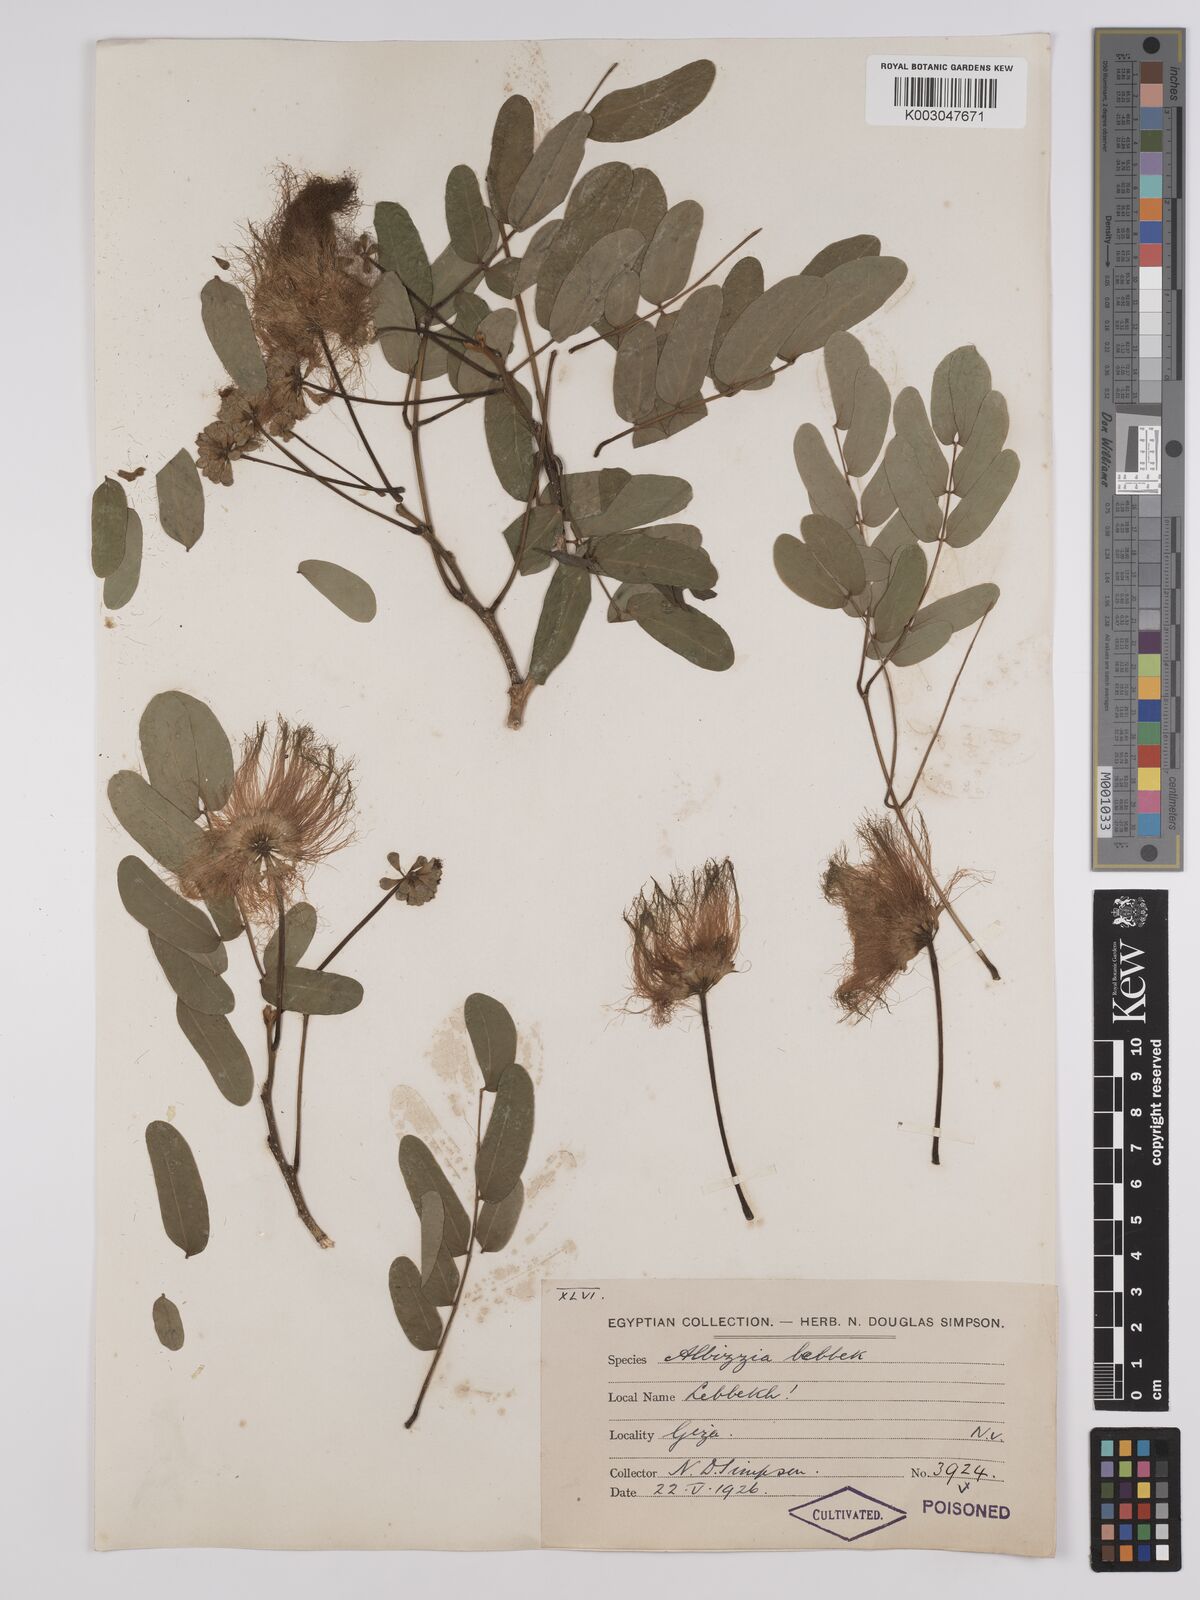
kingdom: Plantae
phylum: Tracheophyta
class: Magnoliopsida
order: Fabales
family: Fabaceae
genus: Albizia
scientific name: Albizia lebbeck
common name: Woman's tongue
